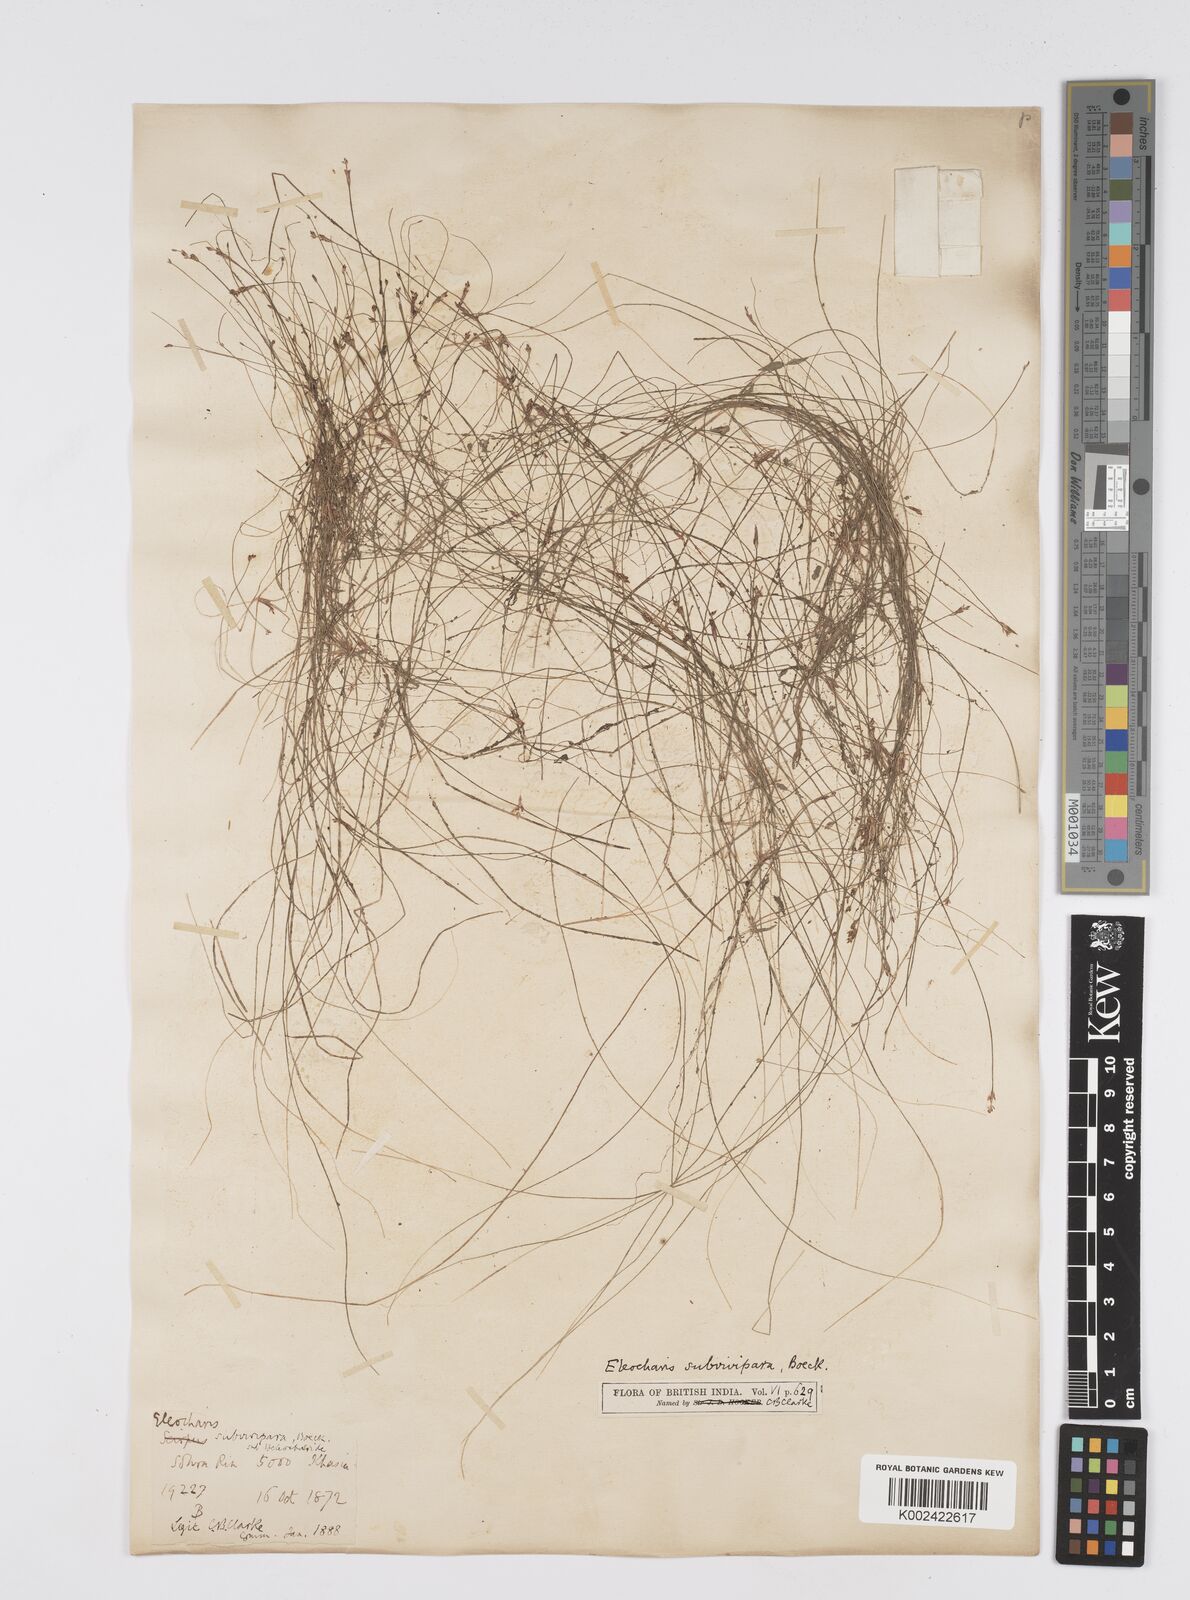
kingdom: Plantae
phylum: Tracheophyta
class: Liliopsida
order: Poales
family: Cyperaceae
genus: Eleocharis
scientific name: Eleocharis caespitosissima
